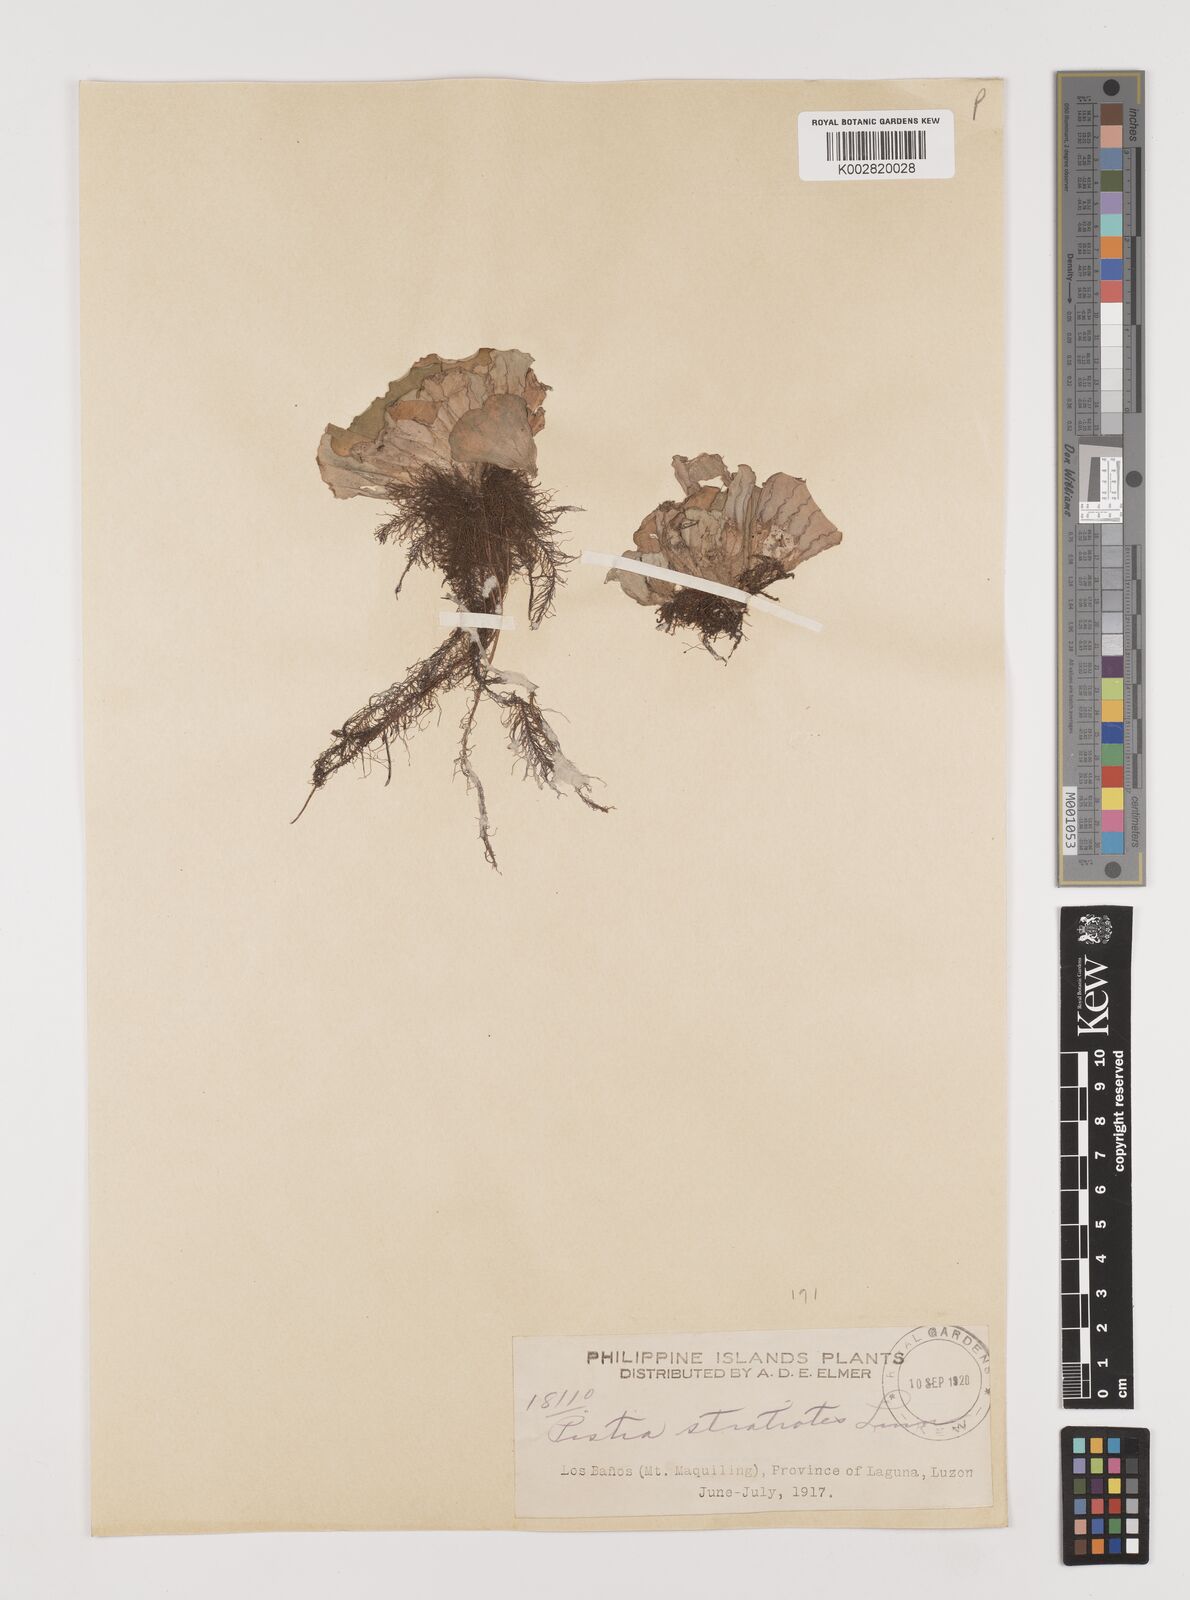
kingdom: Plantae
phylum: Tracheophyta
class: Liliopsida
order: Alismatales
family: Araceae
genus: Pistia
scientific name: Pistia stratiotes
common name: Water lettuce
